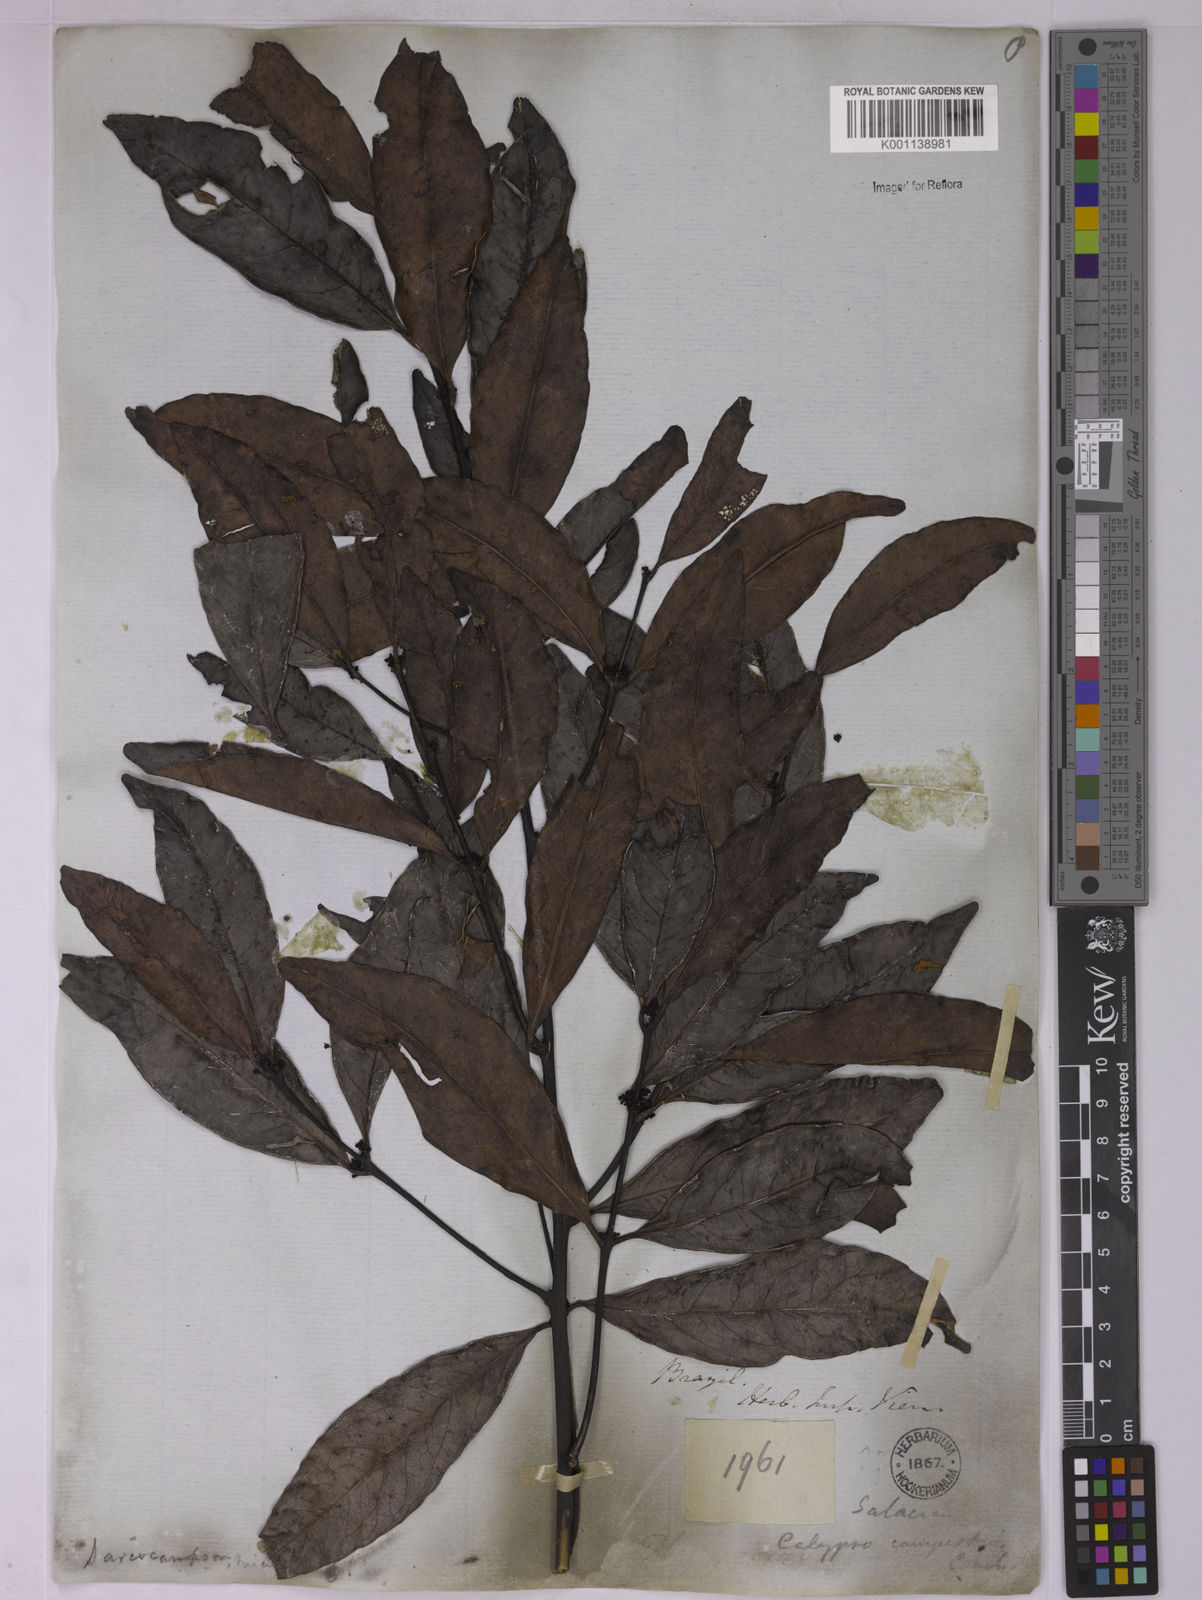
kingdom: Plantae
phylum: Tracheophyta
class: Magnoliopsida
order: Celastrales
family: Celastraceae
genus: Peritassa
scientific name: Peritassa campestris
